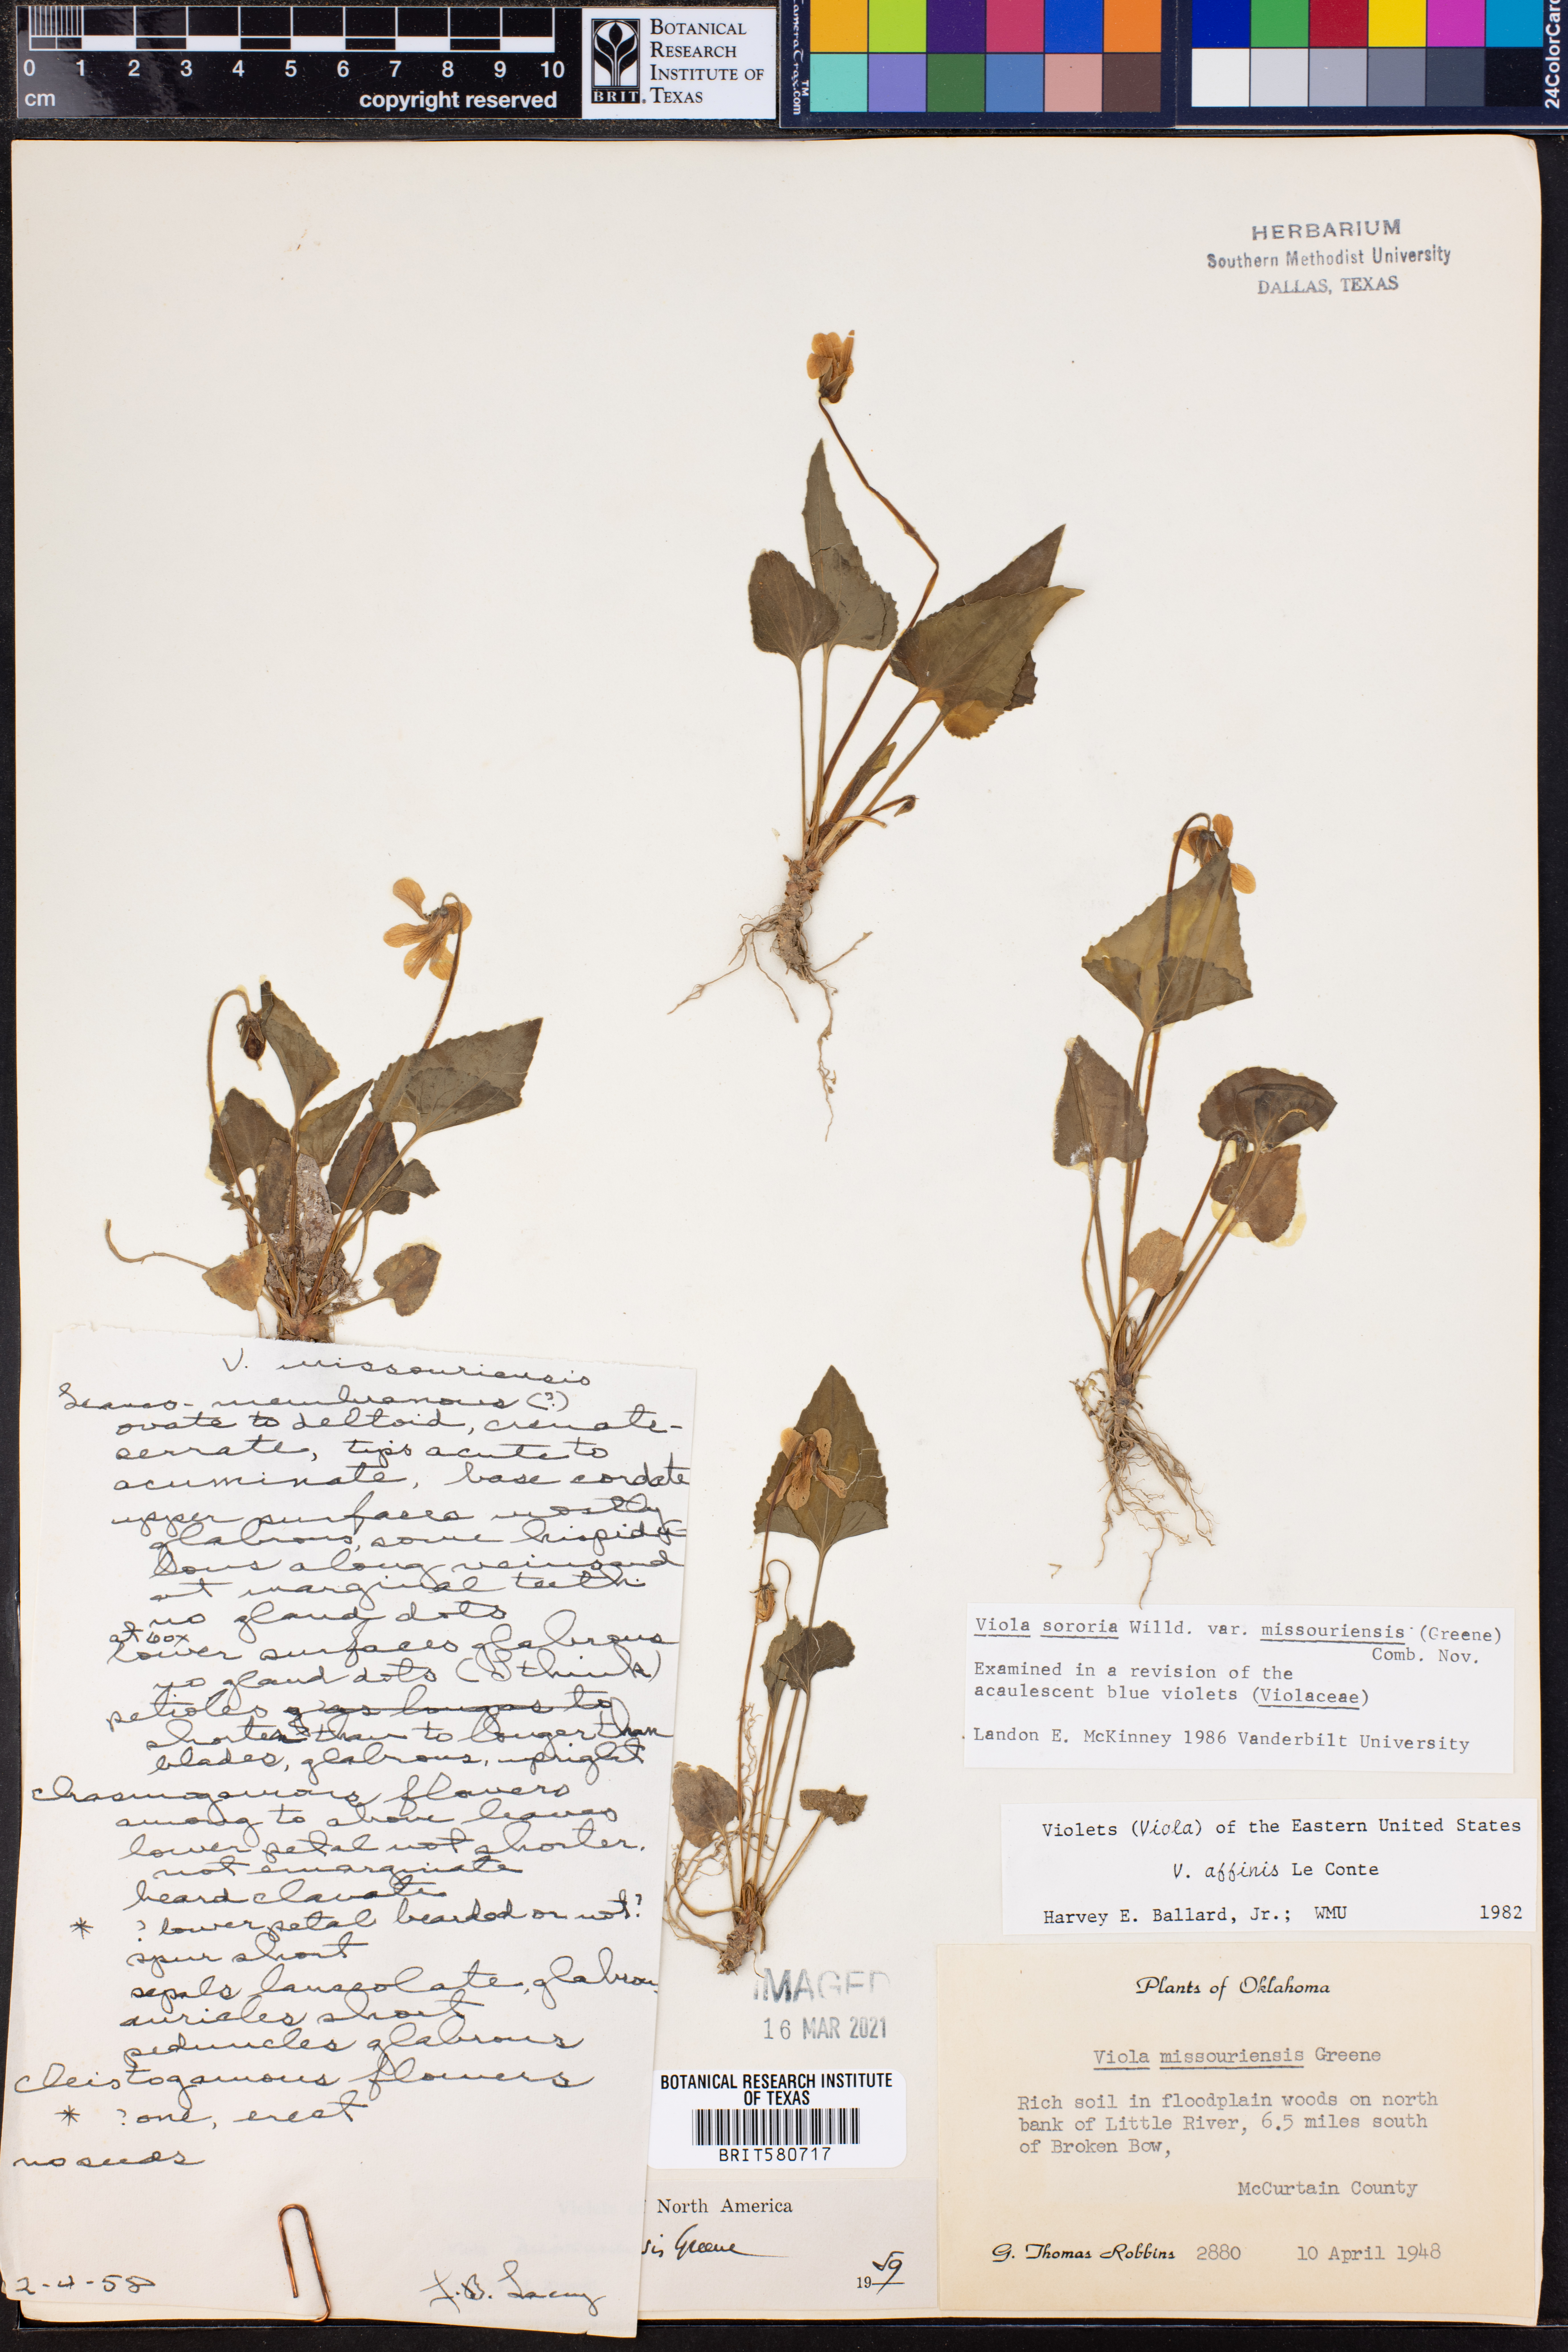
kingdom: Plantae
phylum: Tracheophyta
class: Magnoliopsida
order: Malpighiales
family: Violaceae
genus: Viola
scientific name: Viola missouriensis
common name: Missouri violet
